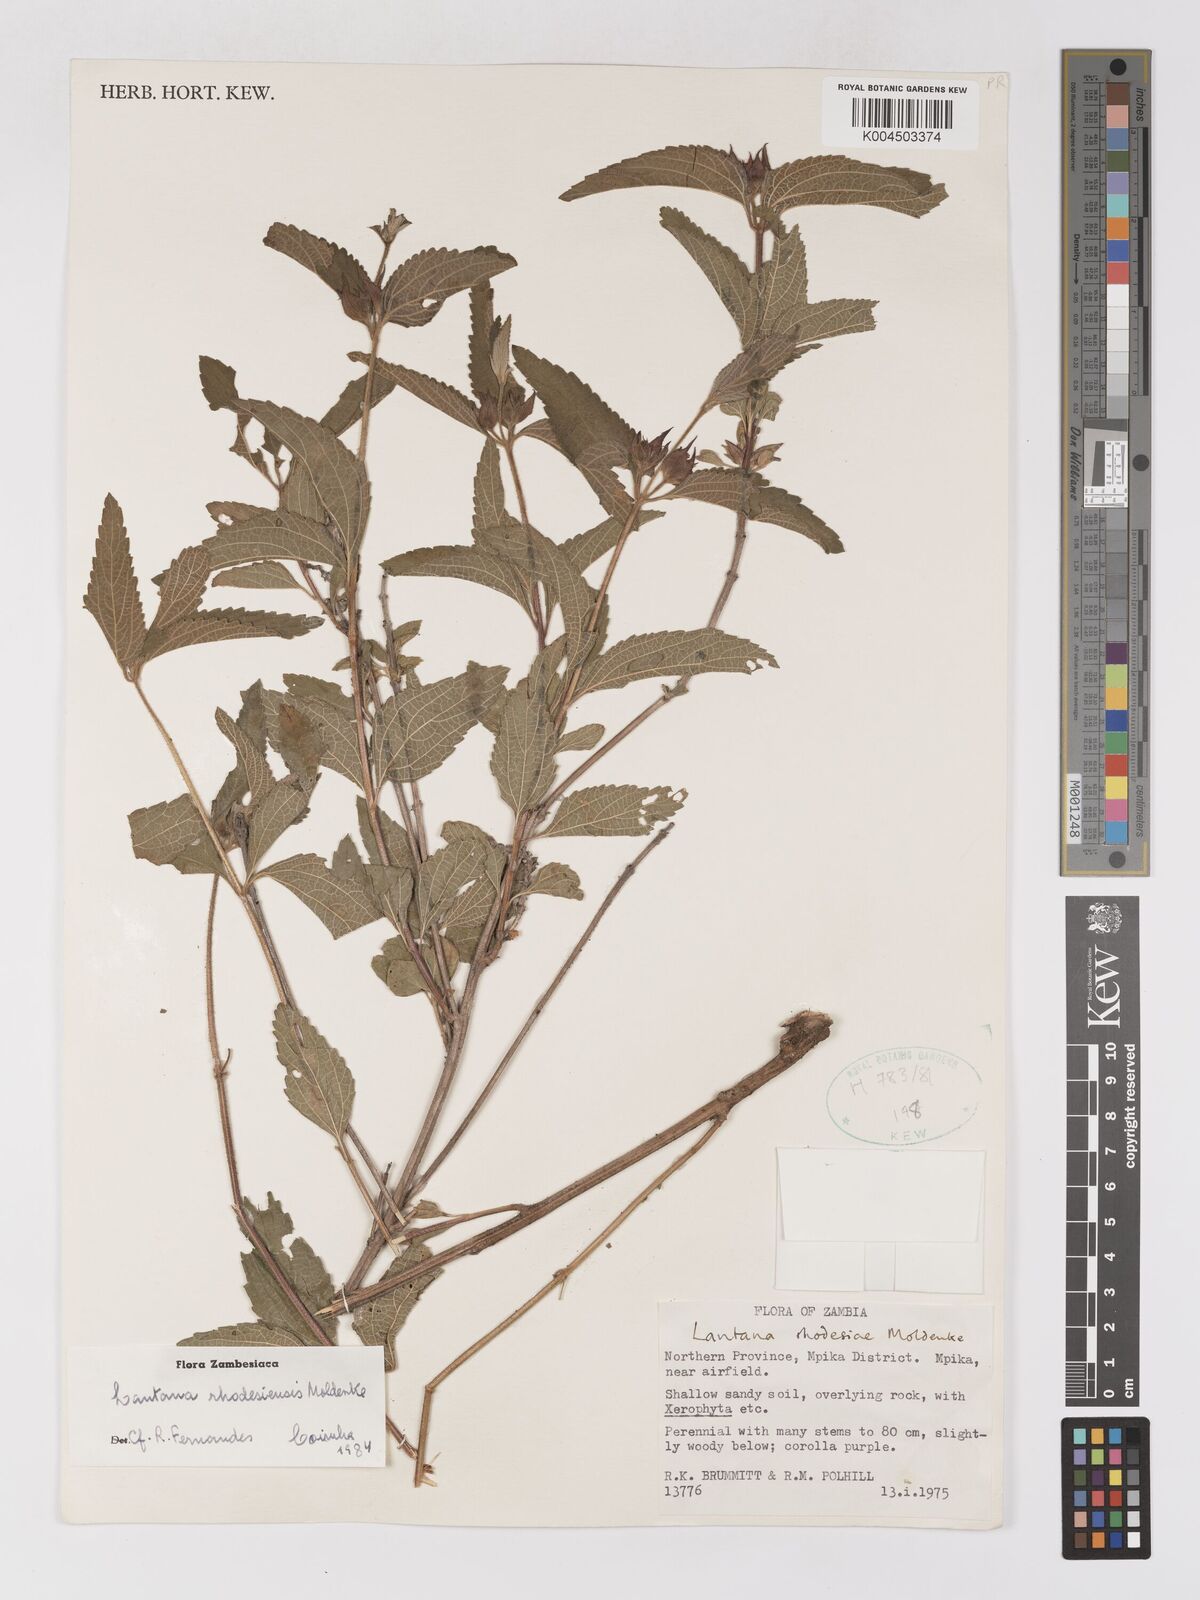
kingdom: Plantae
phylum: Tracheophyta
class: Magnoliopsida
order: Lamiales
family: Verbenaceae
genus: Lantana
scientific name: Lantana ukambensis
